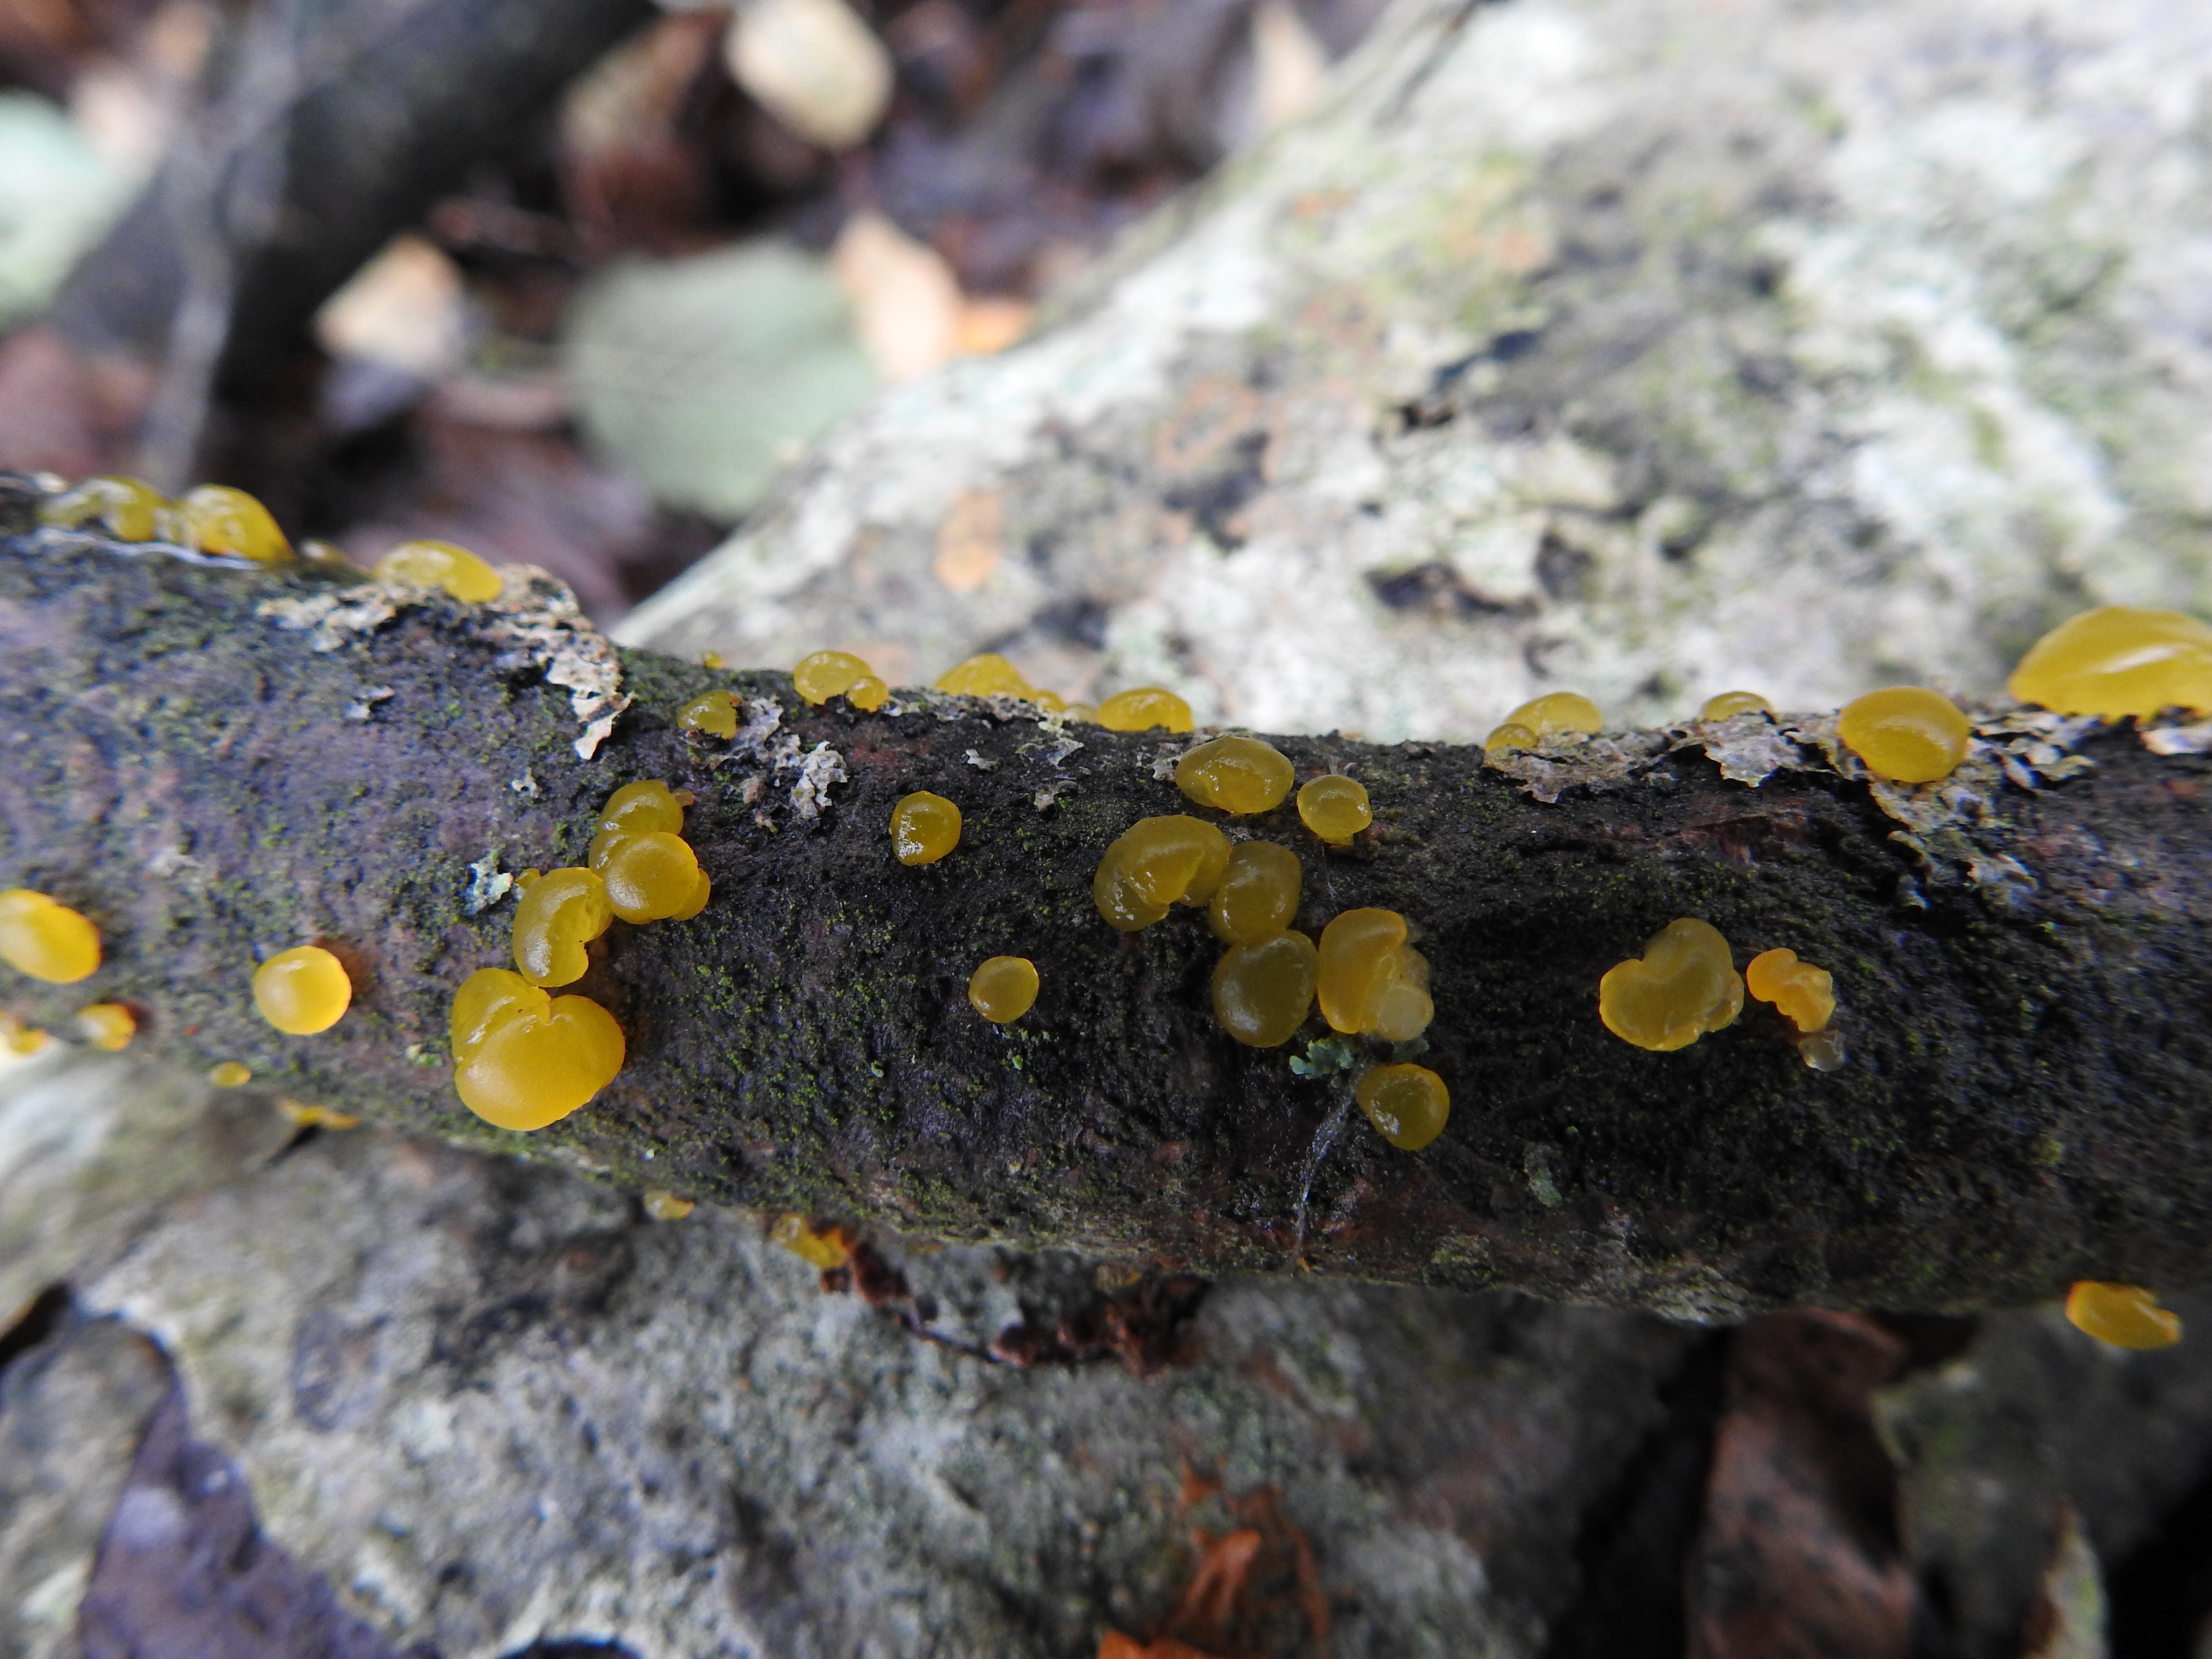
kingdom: Fungi
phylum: Basidiomycota
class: Dacrymycetes
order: Dacrymycetales
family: Dacrymycetaceae
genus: Dacrymyces
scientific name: Dacrymyces
